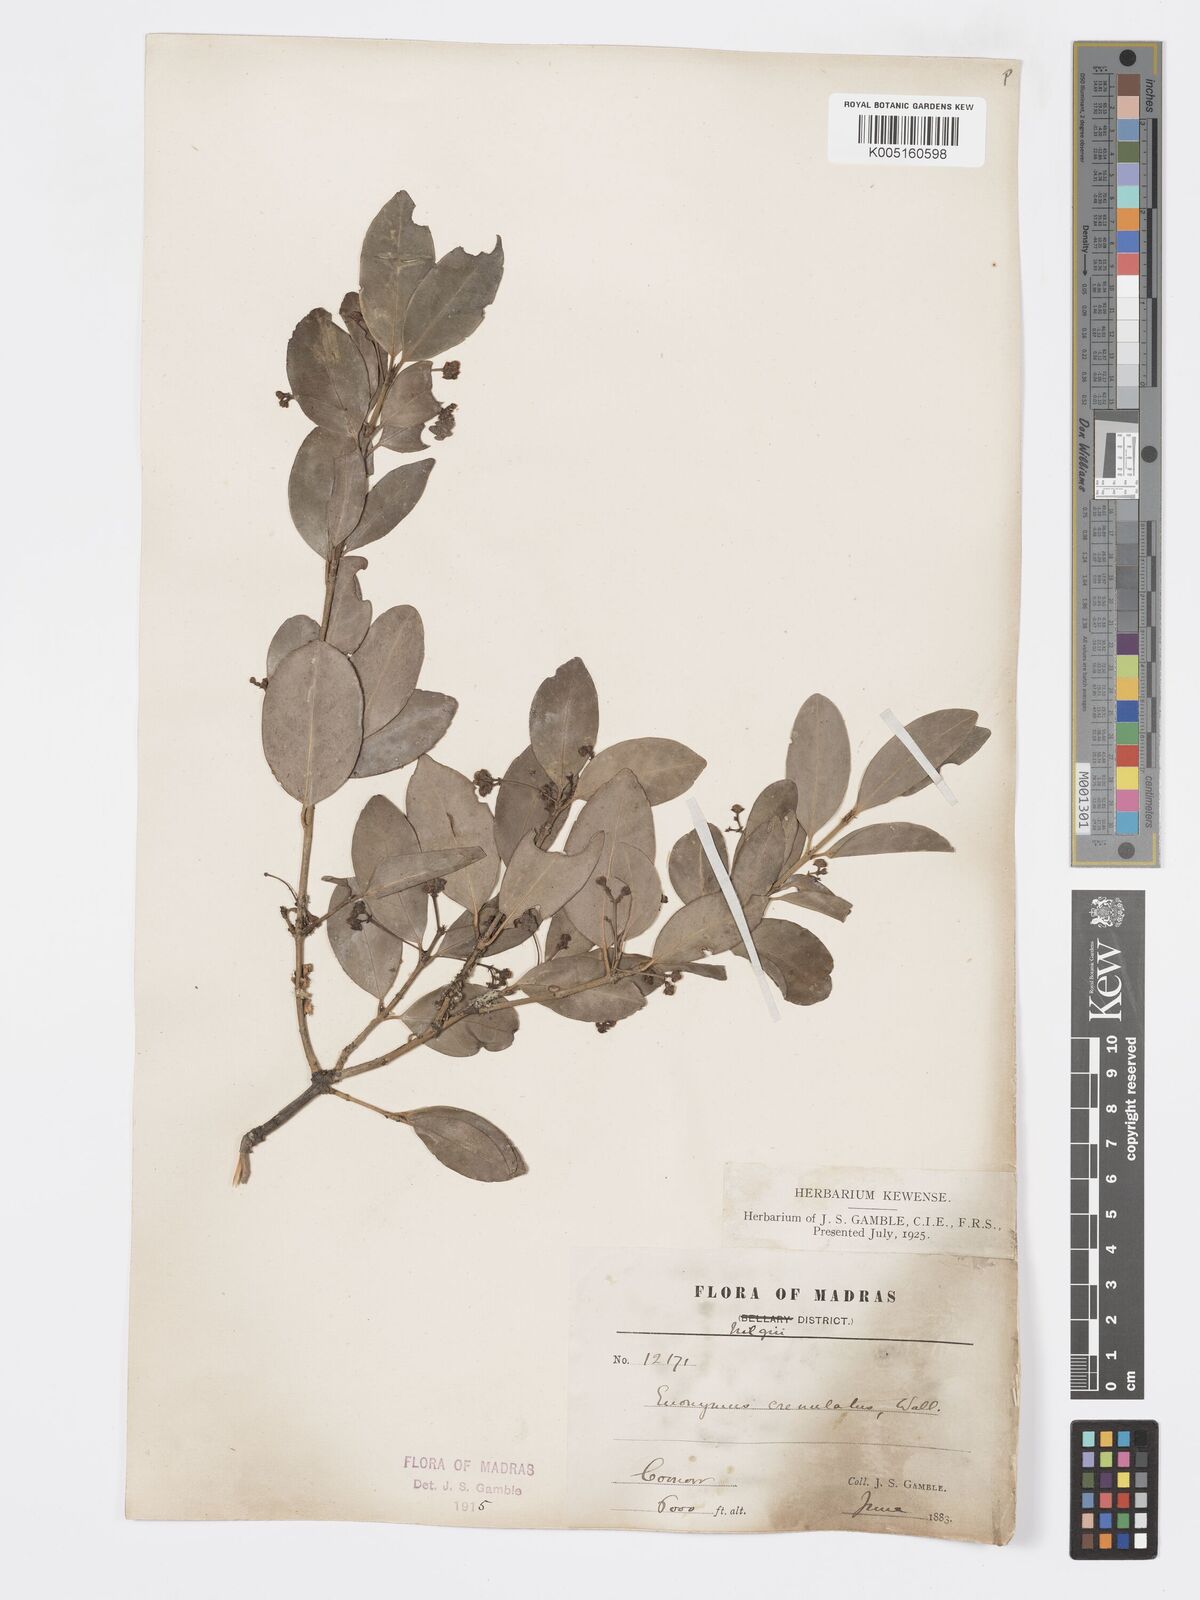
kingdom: Plantae
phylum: Tracheophyta
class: Magnoliopsida
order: Celastrales
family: Celastraceae
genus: Euonymus
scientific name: Euonymus crenulatus
